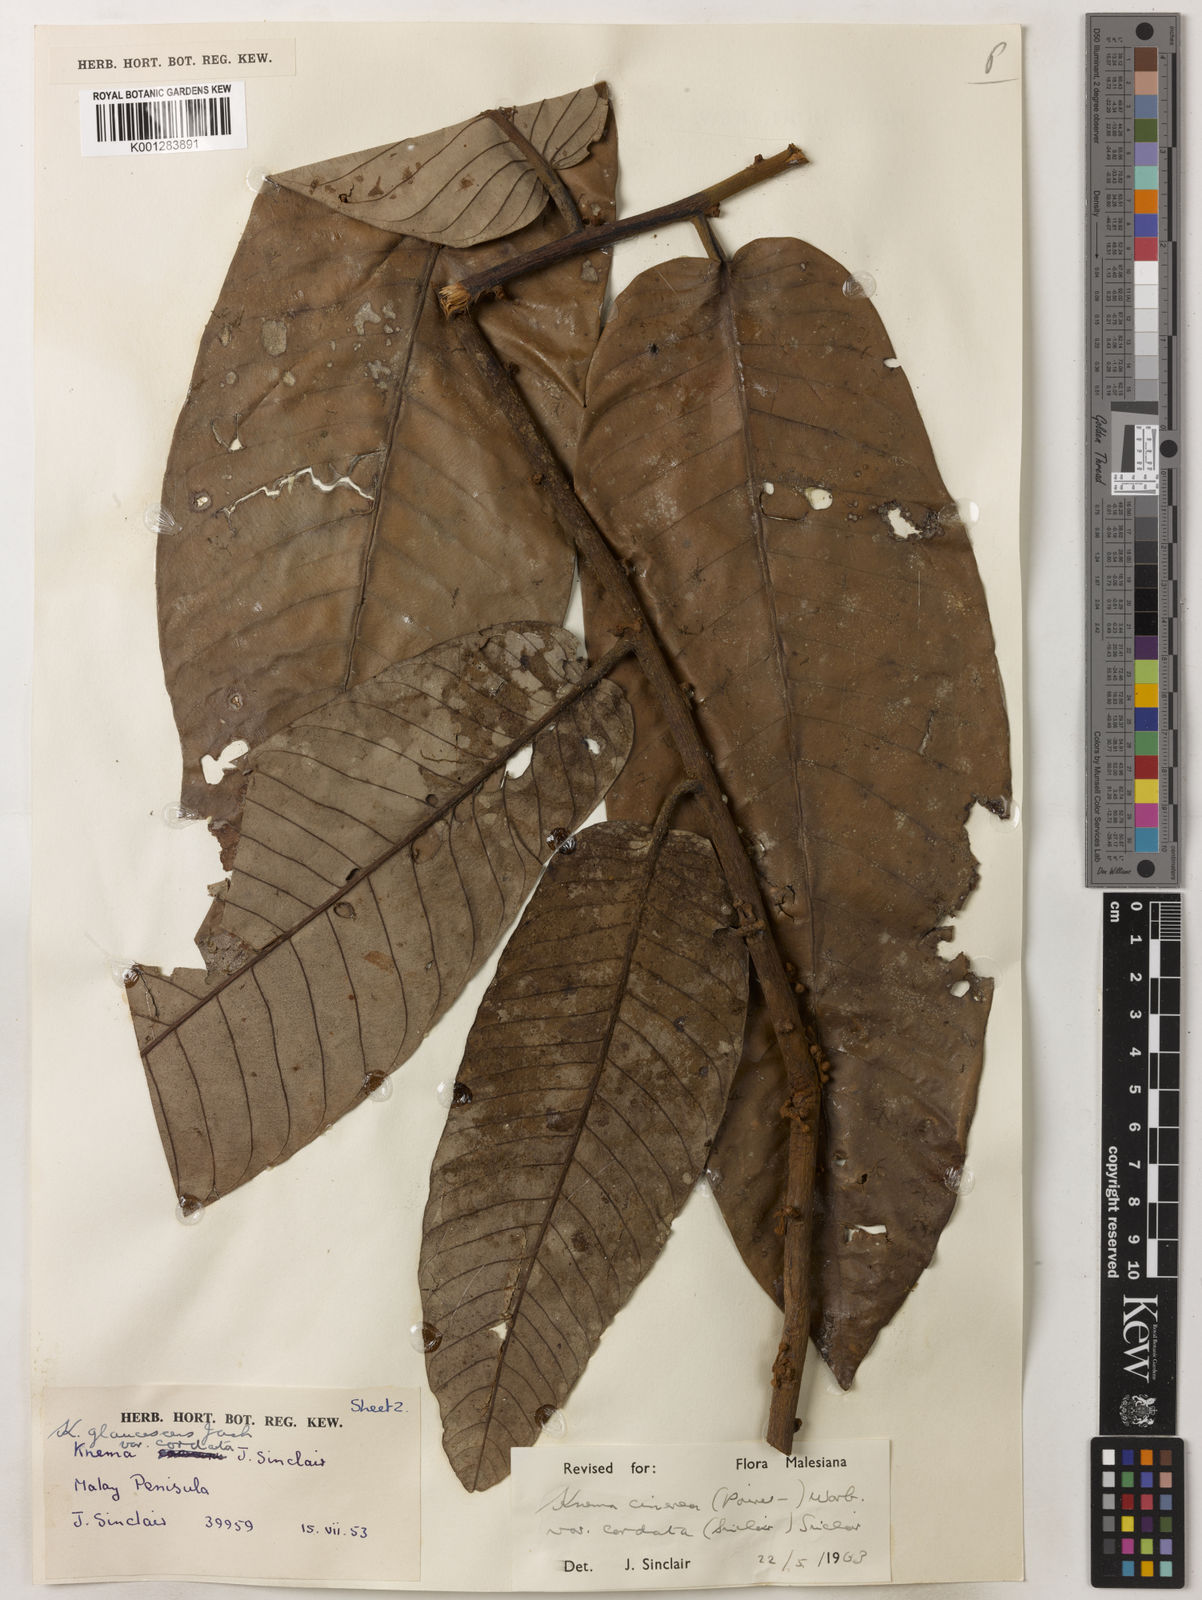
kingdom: Plantae
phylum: Tracheophyta
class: Magnoliopsida
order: Magnoliales
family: Myristicaceae
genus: Knema
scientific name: Knema
